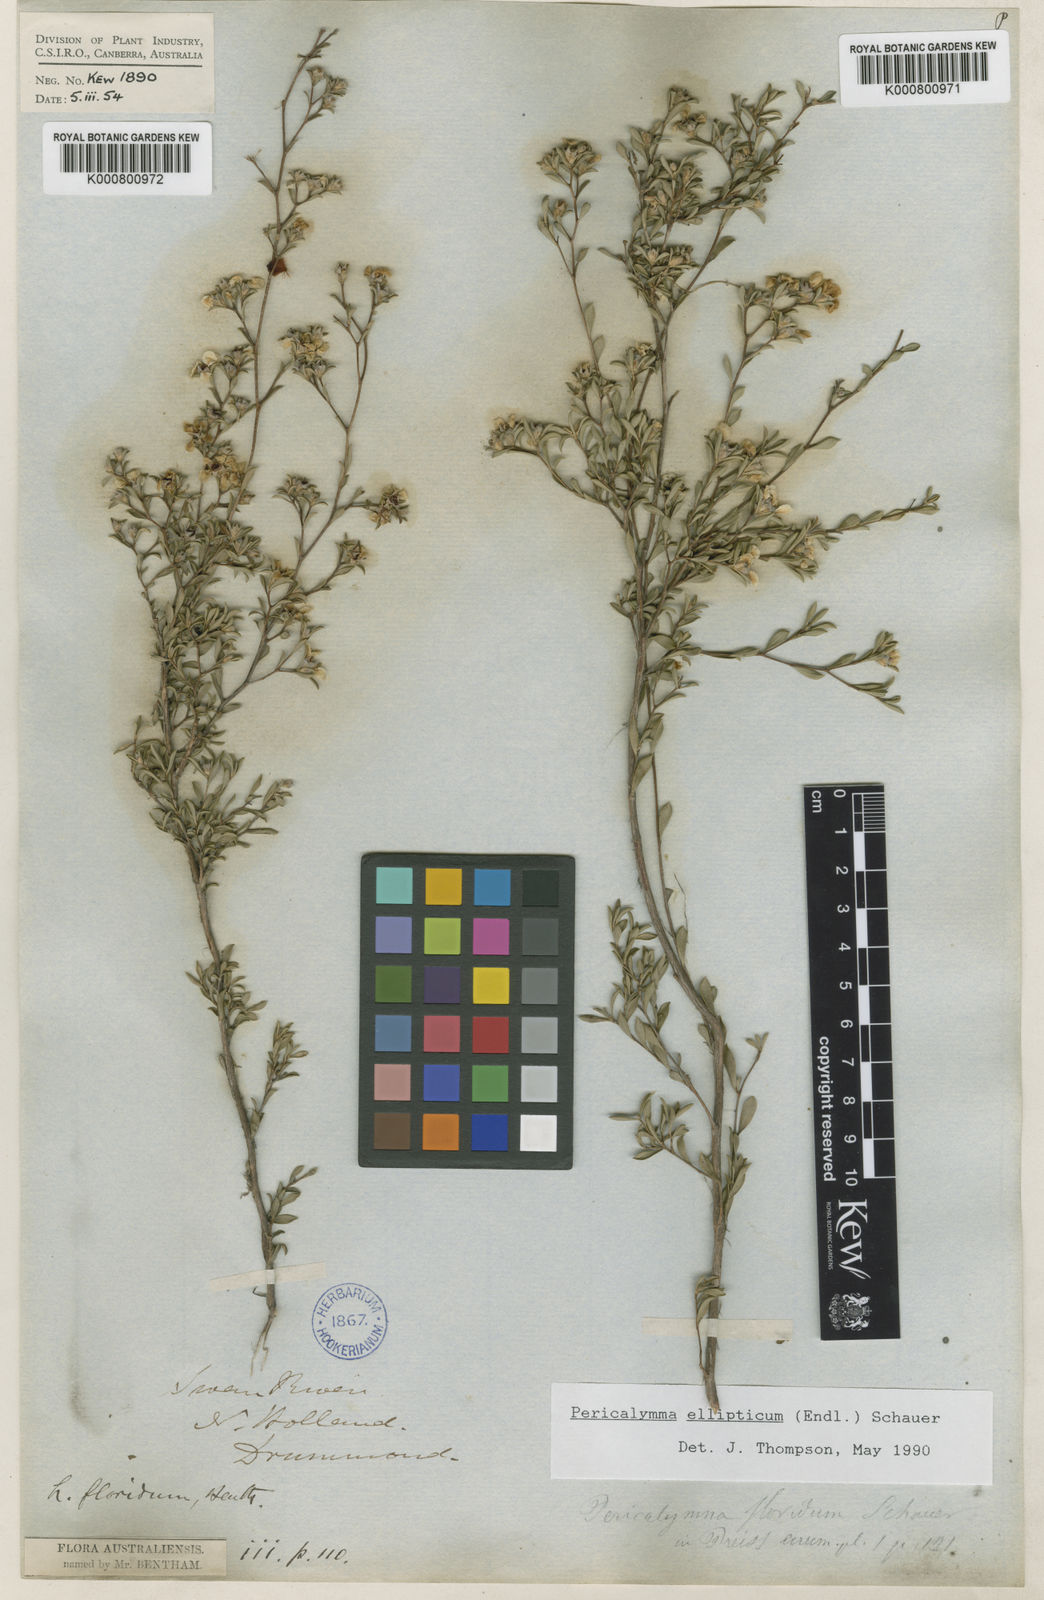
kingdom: Plantae
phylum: Tracheophyta
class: Magnoliopsida
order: Myrtales
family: Myrtaceae
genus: Pericalymma
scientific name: Pericalymma ellipticum
